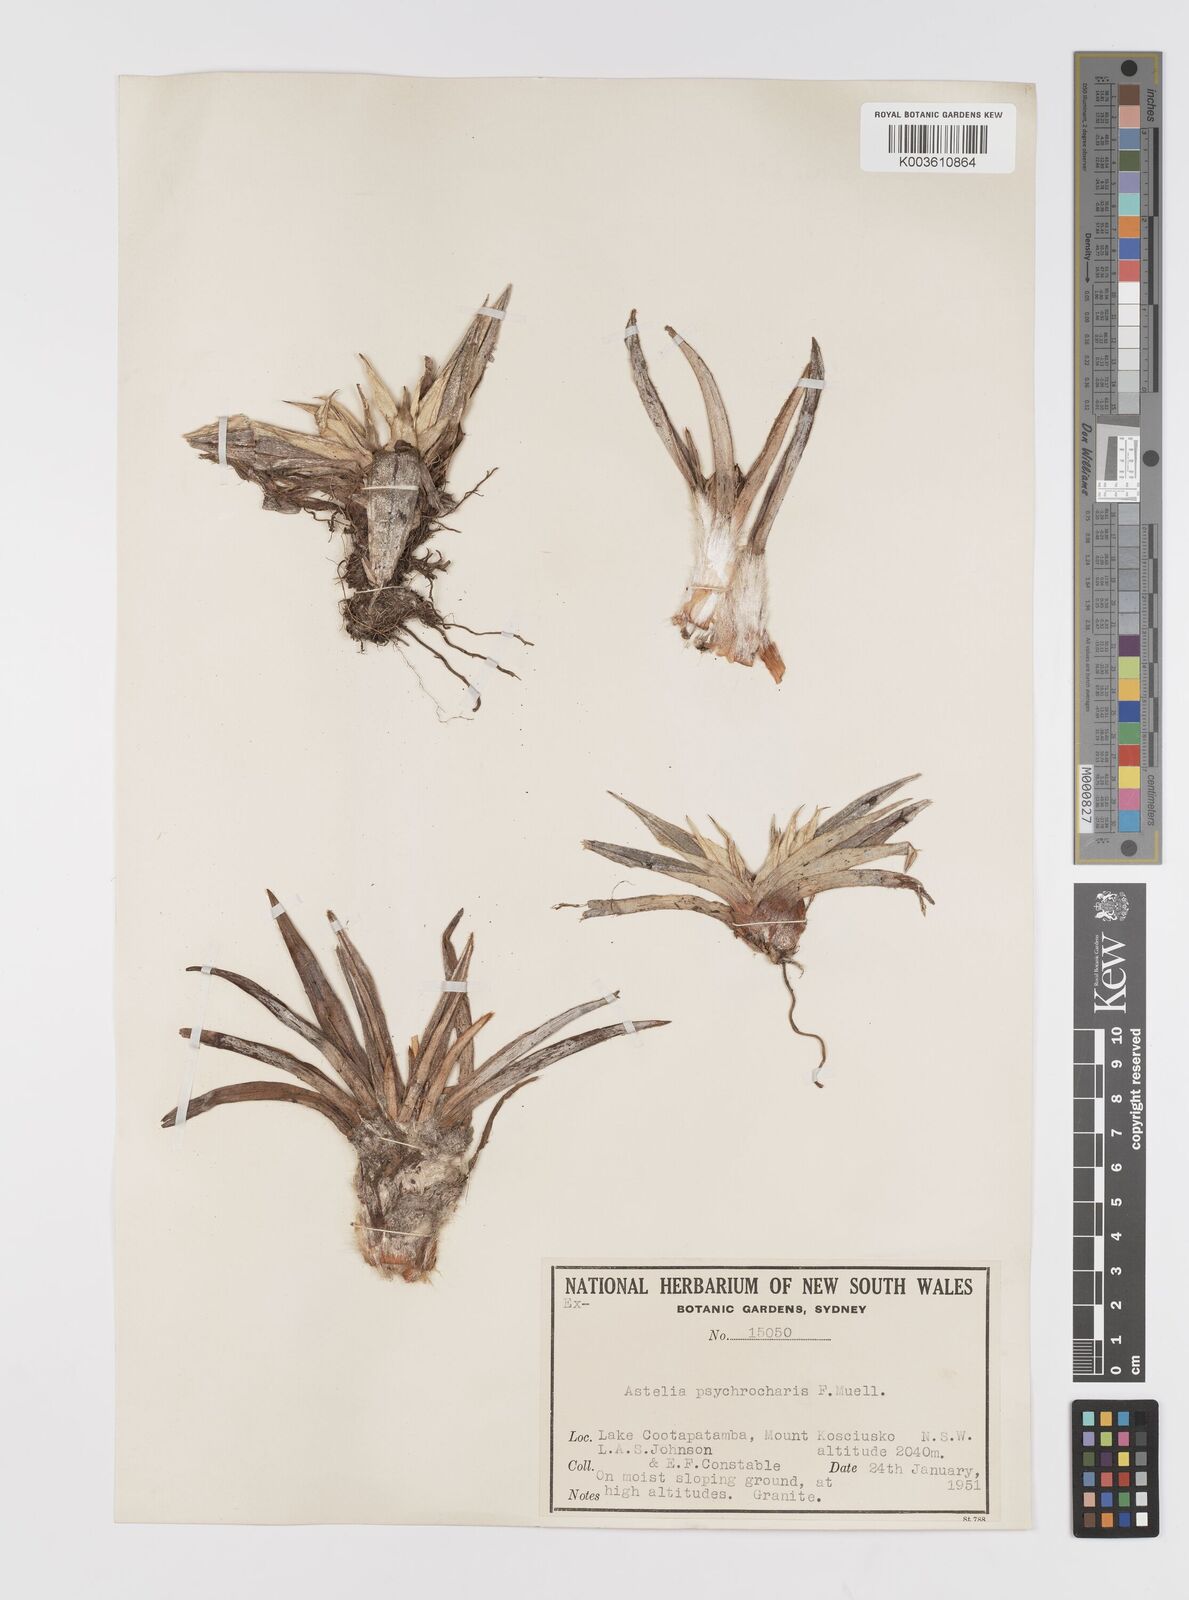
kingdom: Plantae
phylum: Tracheophyta
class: Liliopsida
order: Asparagales
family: Asteliaceae
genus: Astelia
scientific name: Astelia psychrocharis
